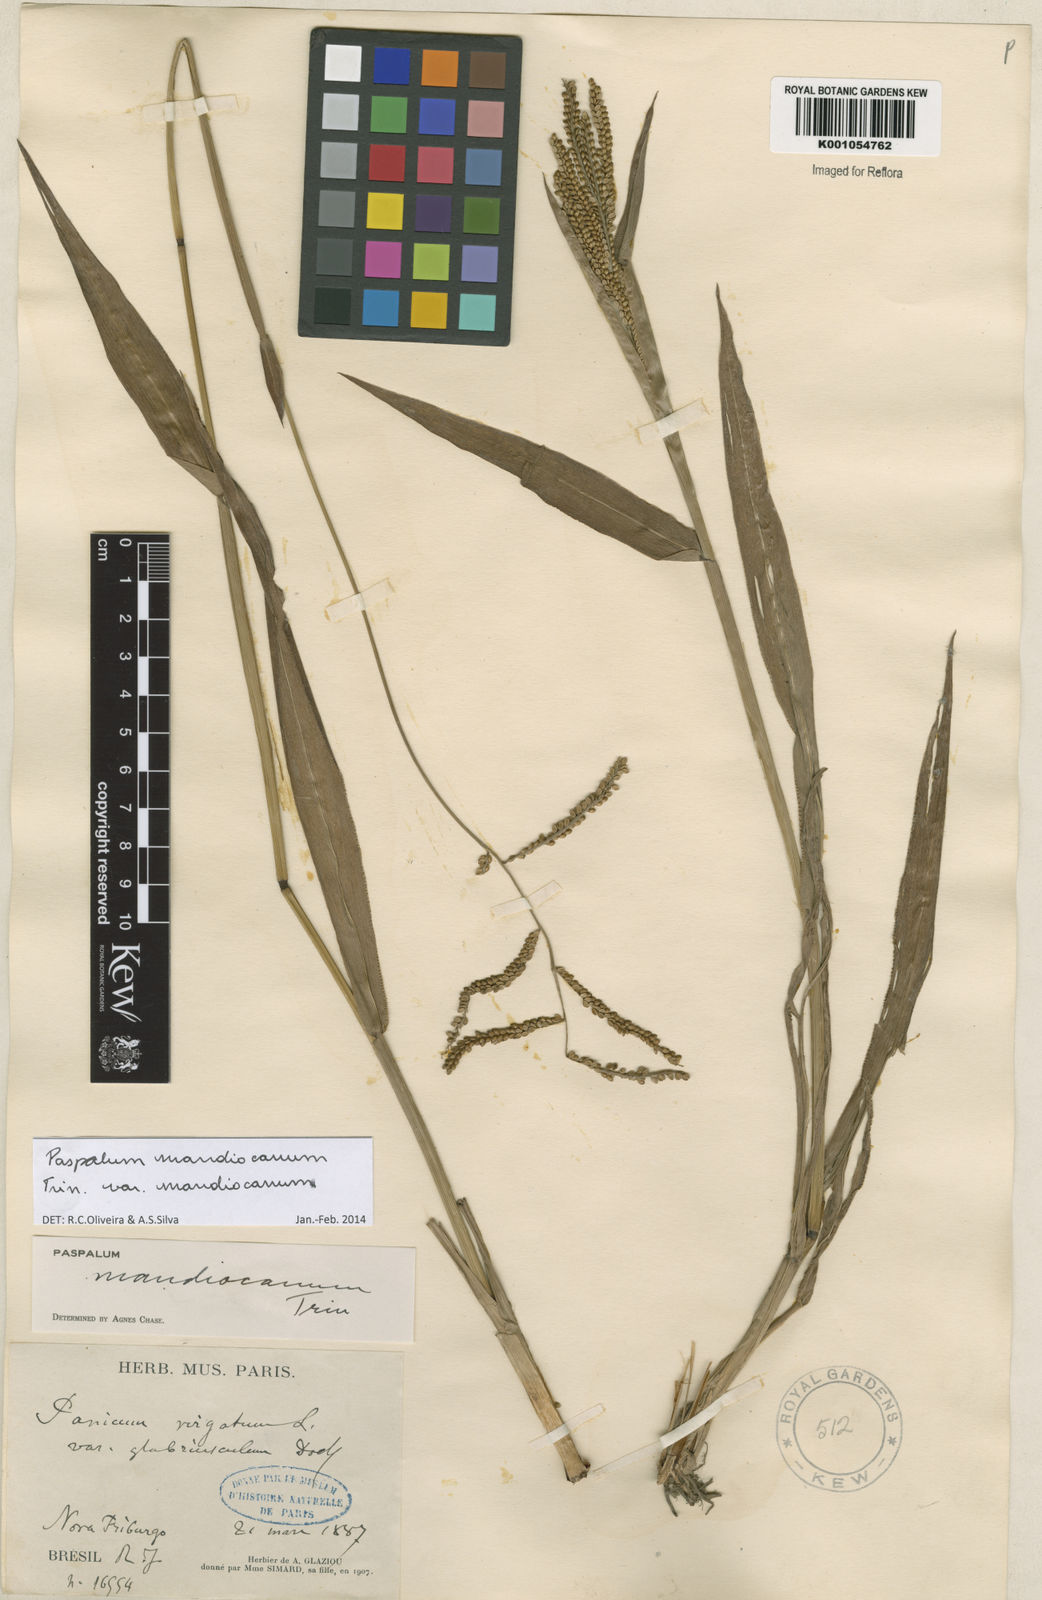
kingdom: Plantae
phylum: Tracheophyta
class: Liliopsida
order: Poales
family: Poaceae
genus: Paspalum
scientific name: Paspalum mandiocanum
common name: Paspalum
